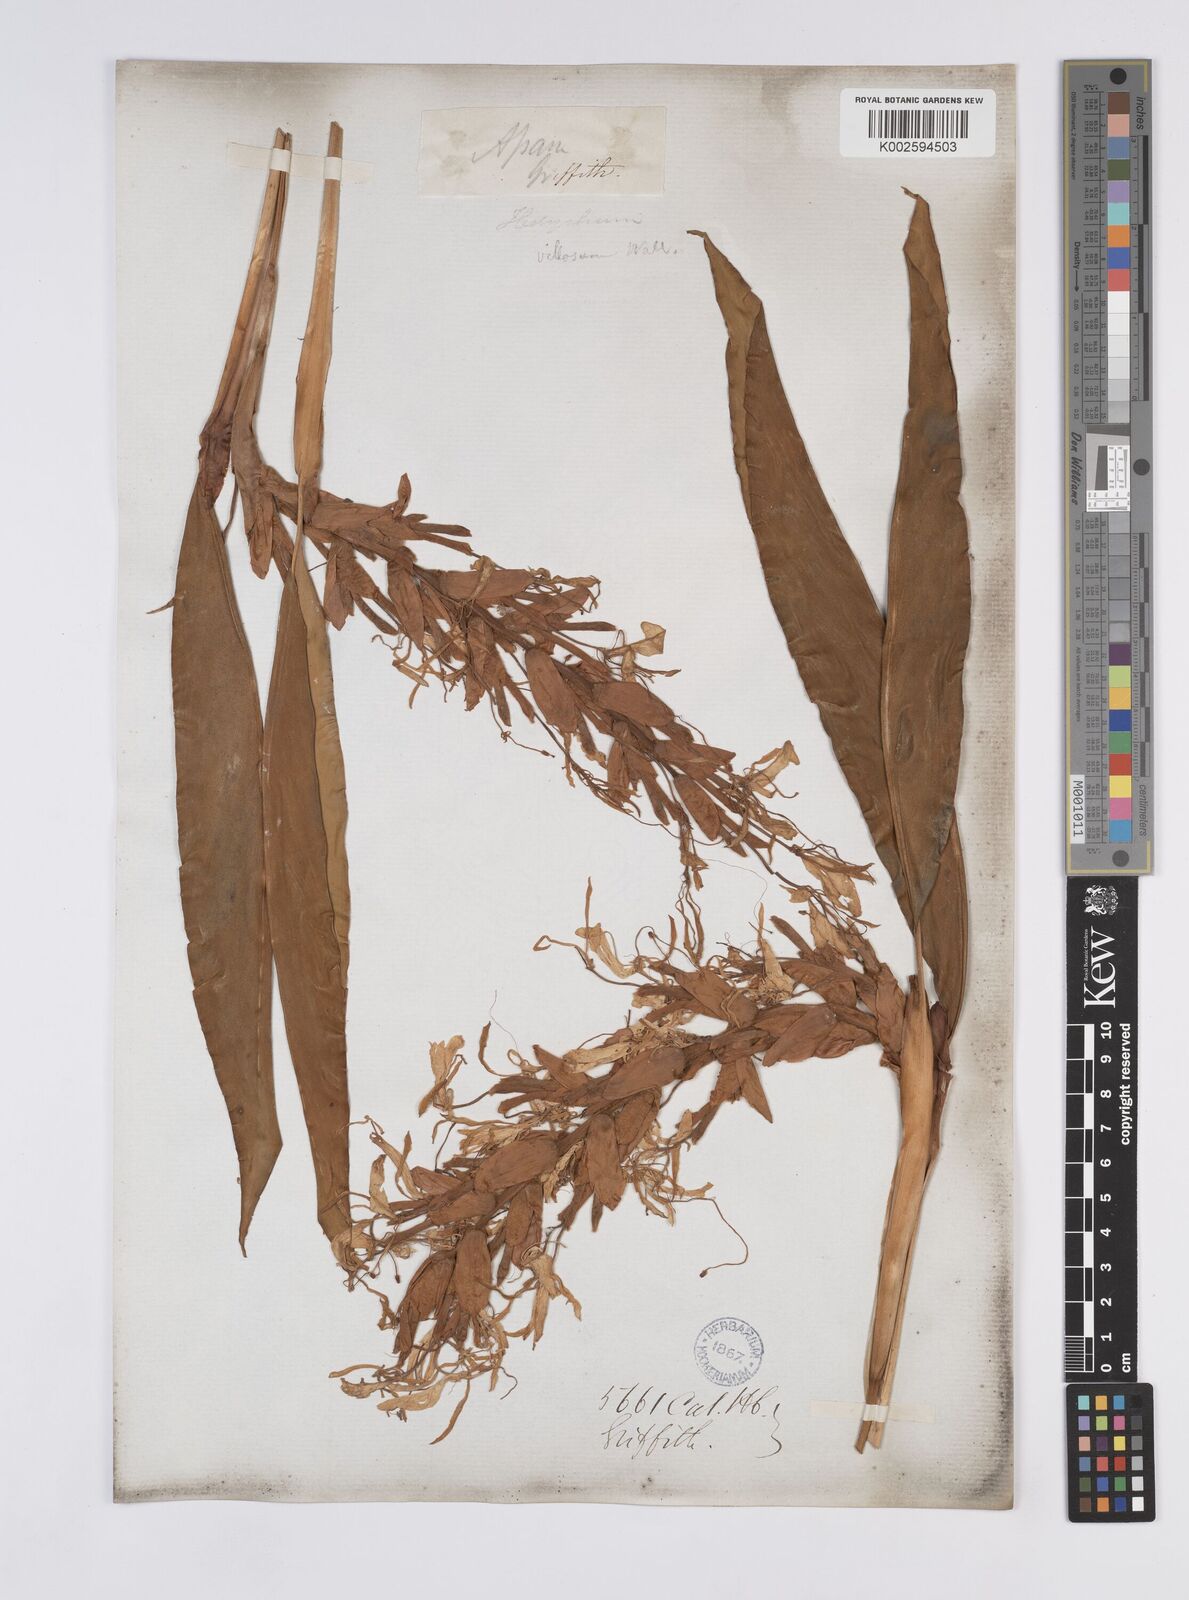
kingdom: Plantae
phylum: Tracheophyta
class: Liliopsida
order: Zingiberales
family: Zingiberaceae
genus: Hedychium
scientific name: Hedychium villosum
